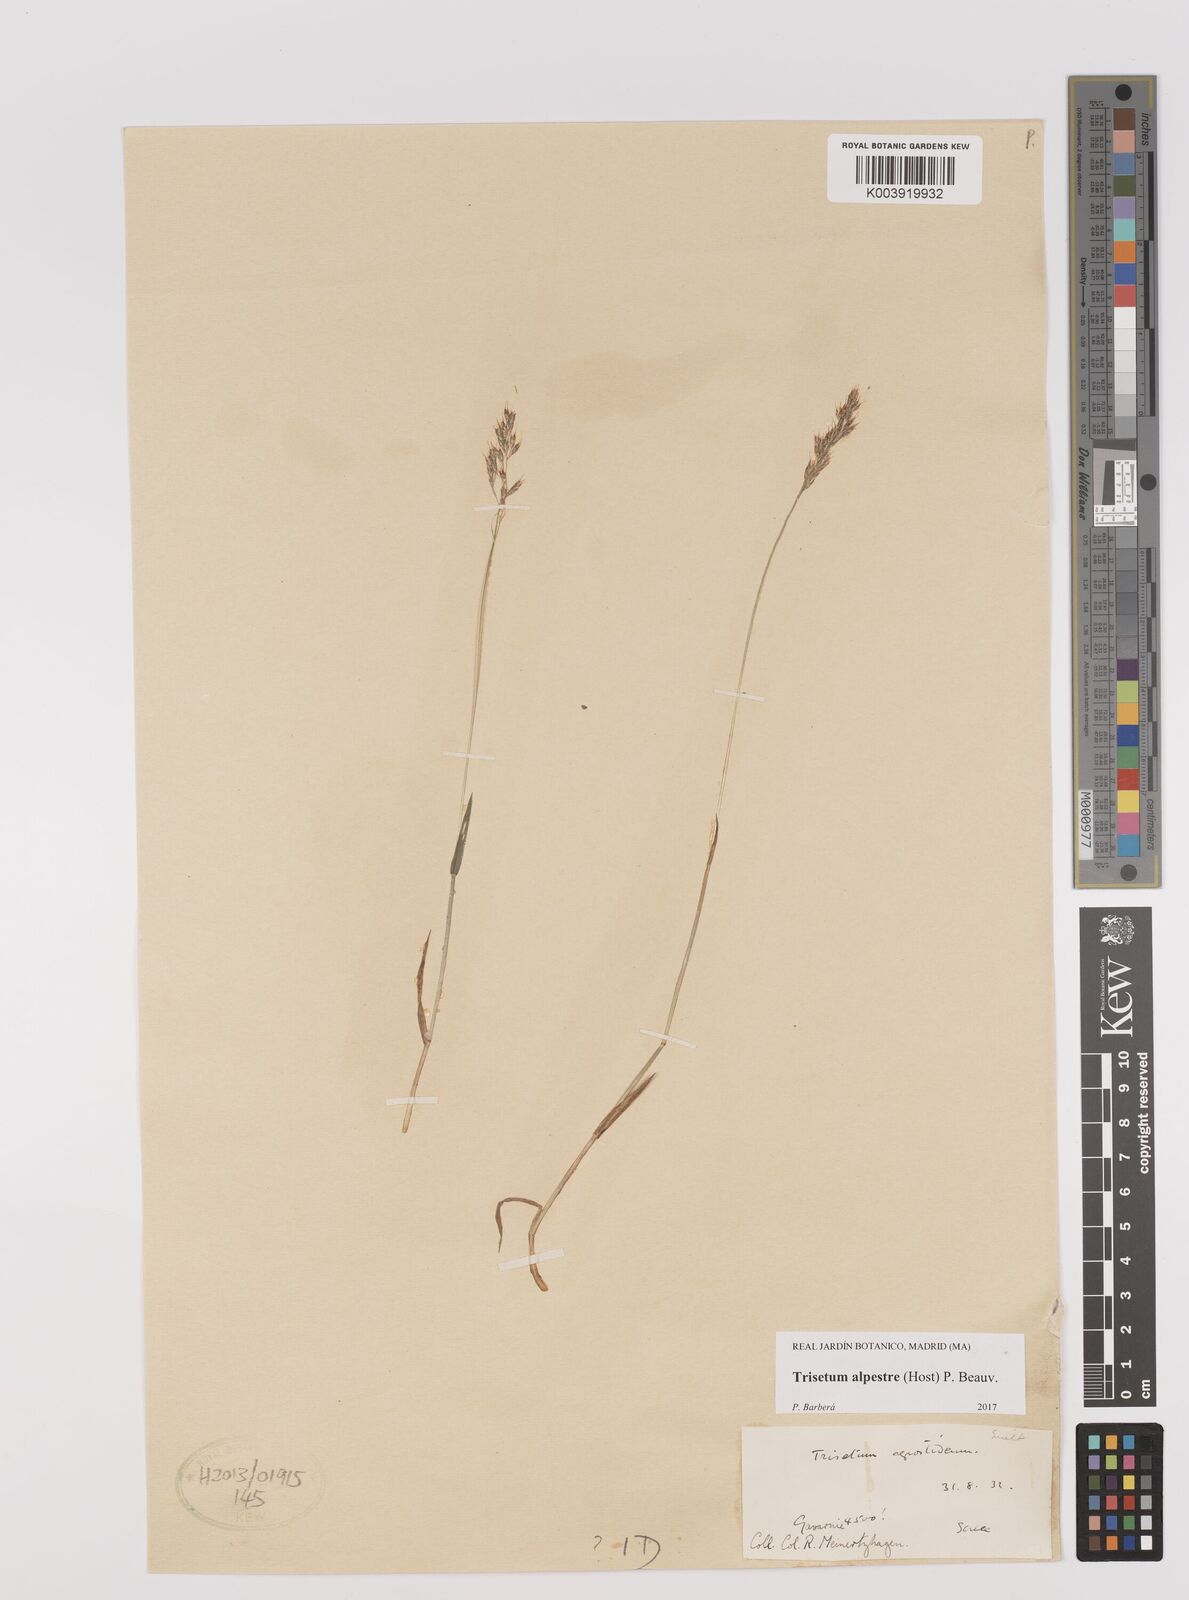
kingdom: Plantae
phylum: Tracheophyta
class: Liliopsida
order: Poales
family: Poaceae
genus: Trisetum
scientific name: Trisetum alpestre
